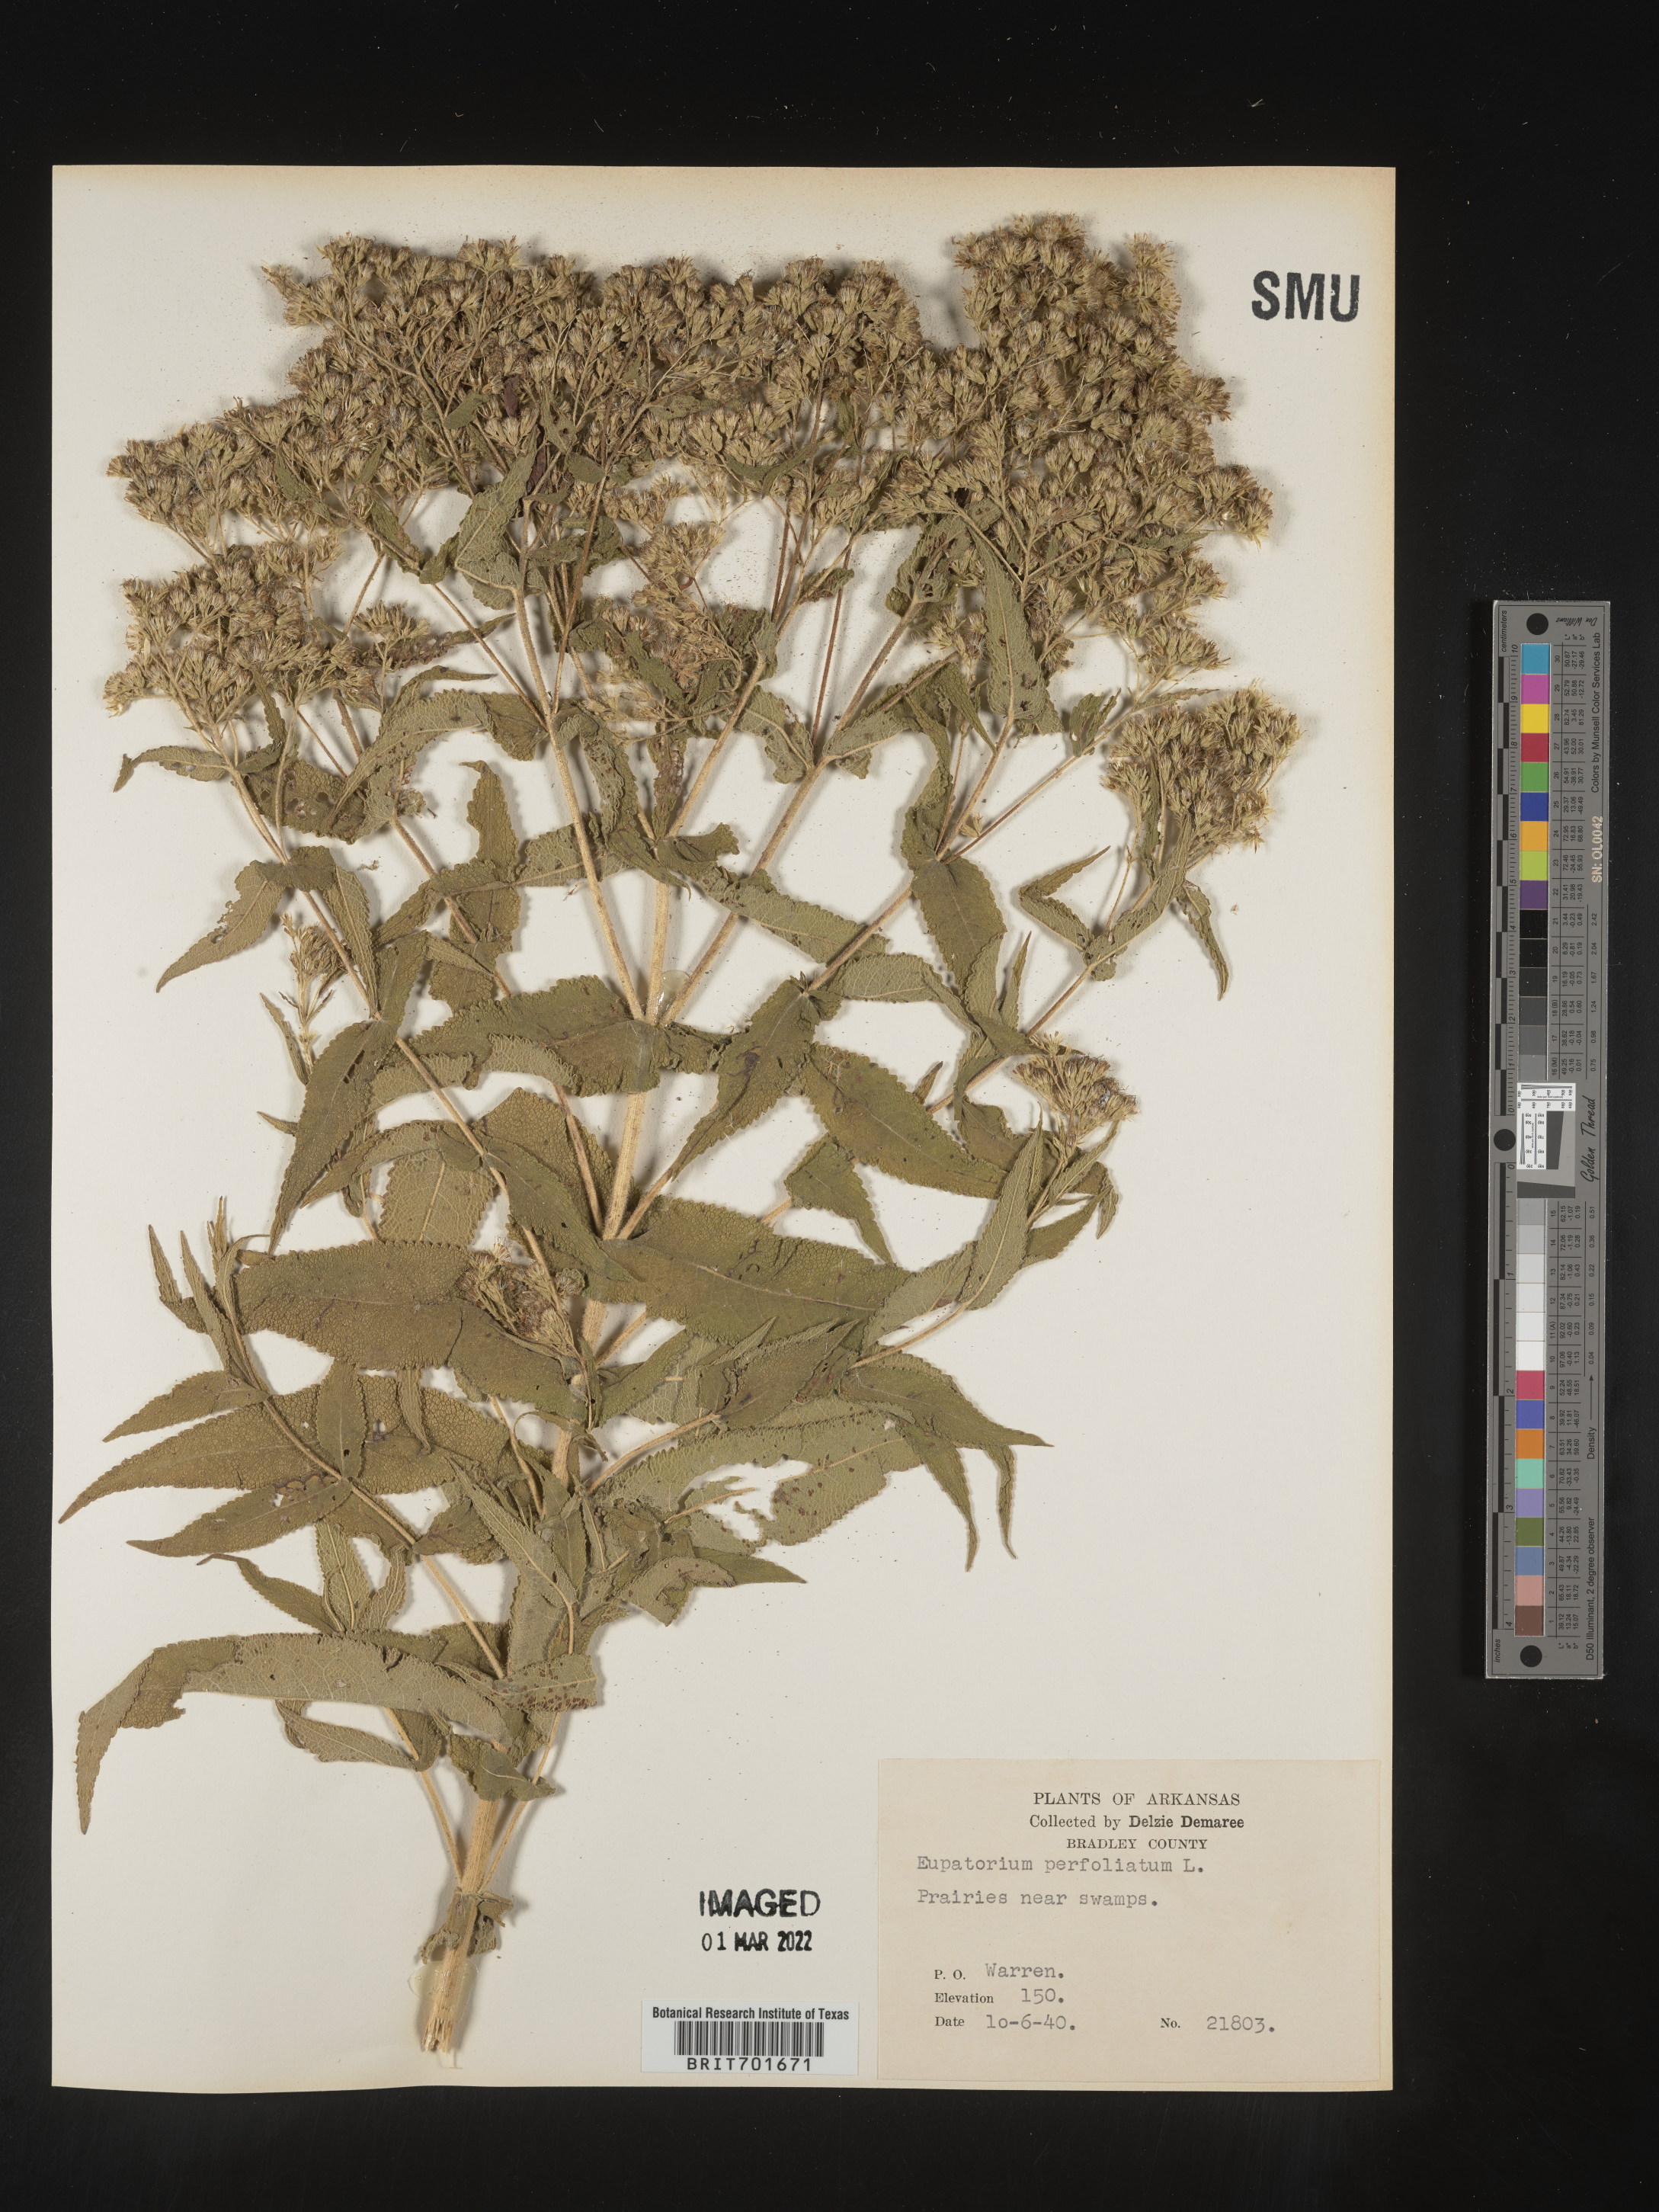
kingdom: Plantae
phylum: Tracheophyta
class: Magnoliopsida
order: Asterales
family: Asteraceae
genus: Eupatorium
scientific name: Eupatorium perfoliatum
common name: Boneset
